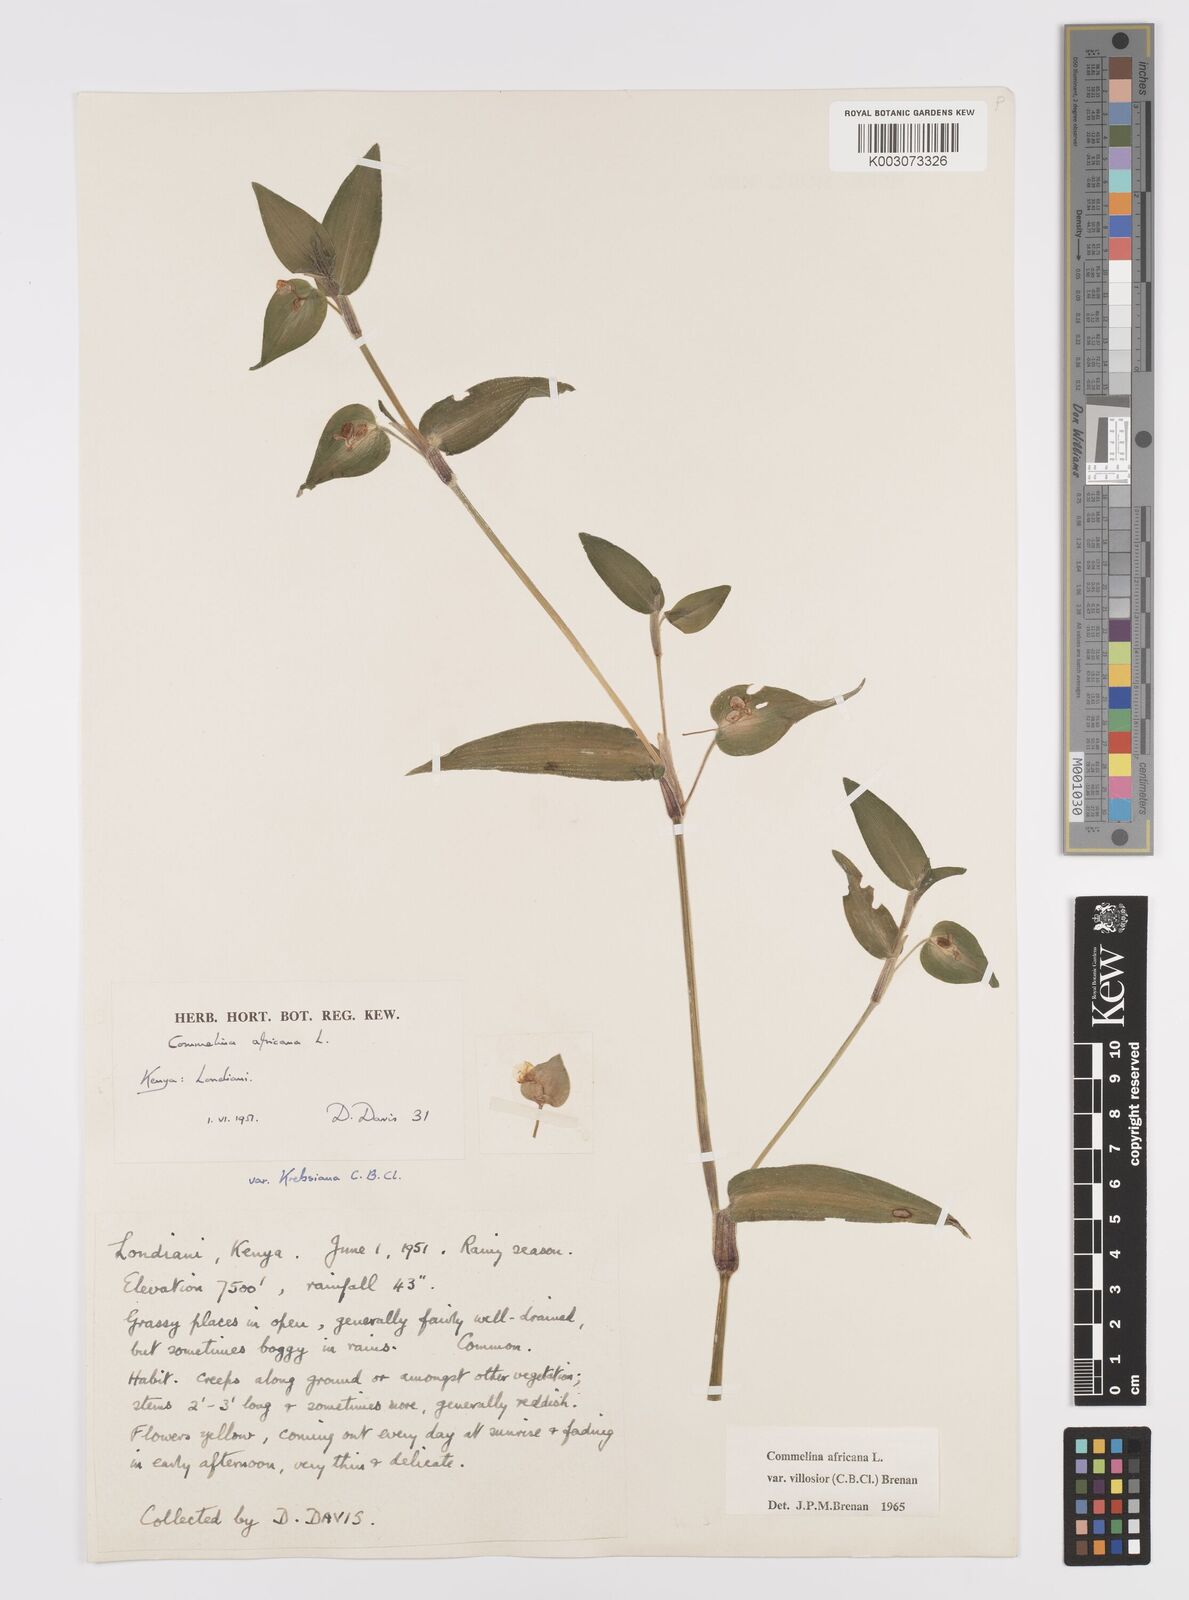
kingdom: Plantae
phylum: Tracheophyta
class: Liliopsida
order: Commelinales
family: Commelinaceae
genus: Commelina
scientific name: Commelina africana
